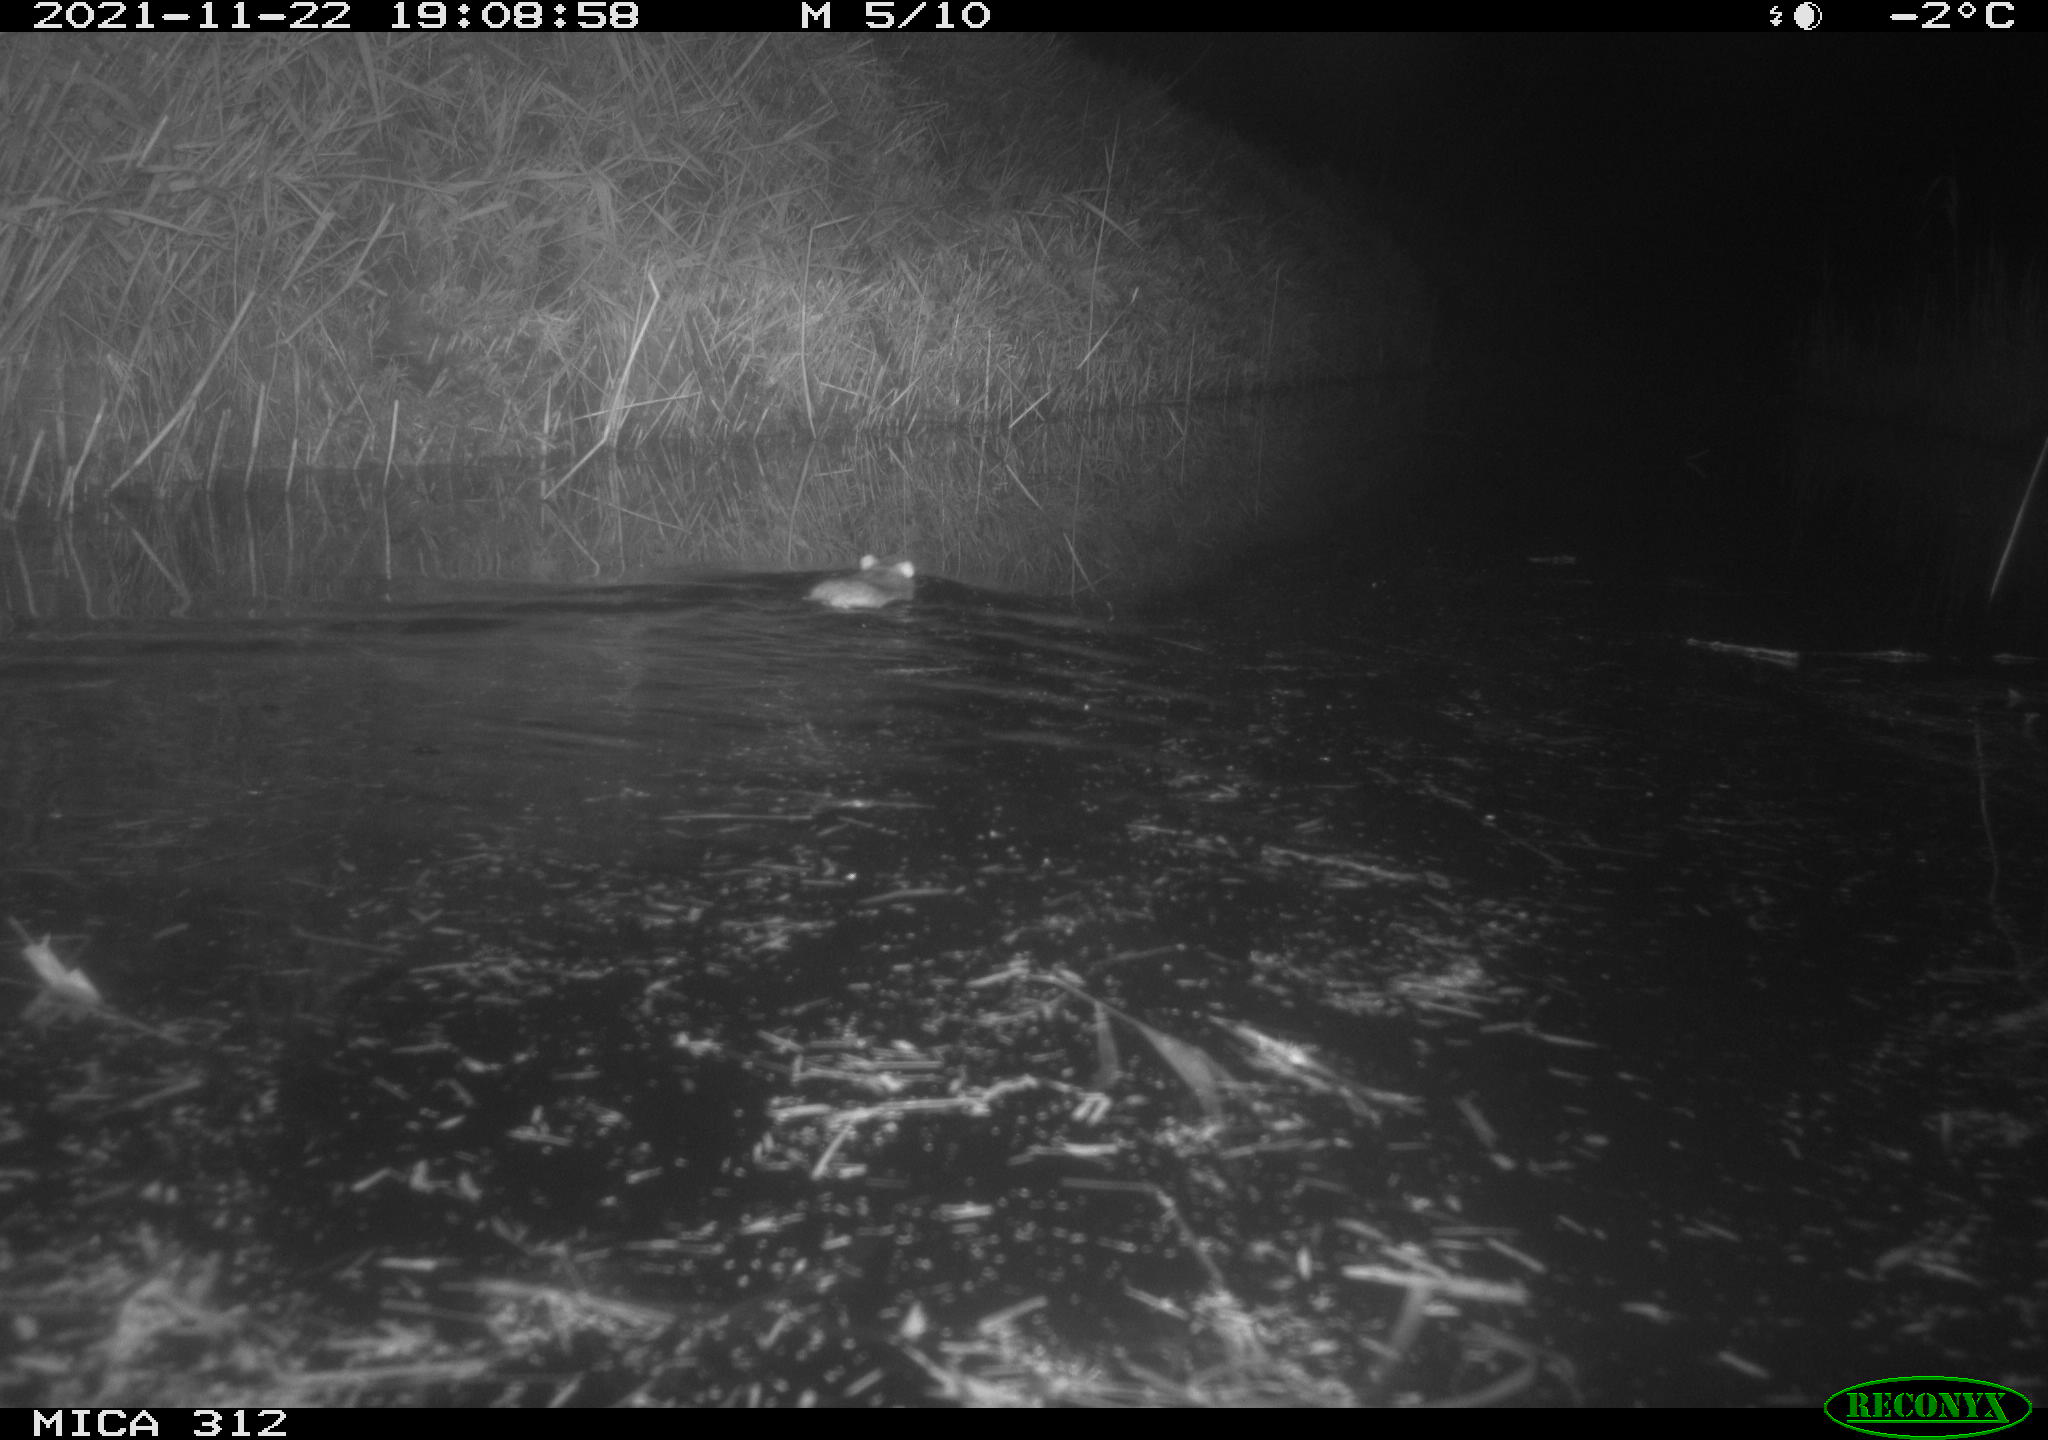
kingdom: Animalia
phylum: Chordata
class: Mammalia
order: Rodentia
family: Muridae
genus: Rattus
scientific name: Rattus norvegicus
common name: Brown rat
